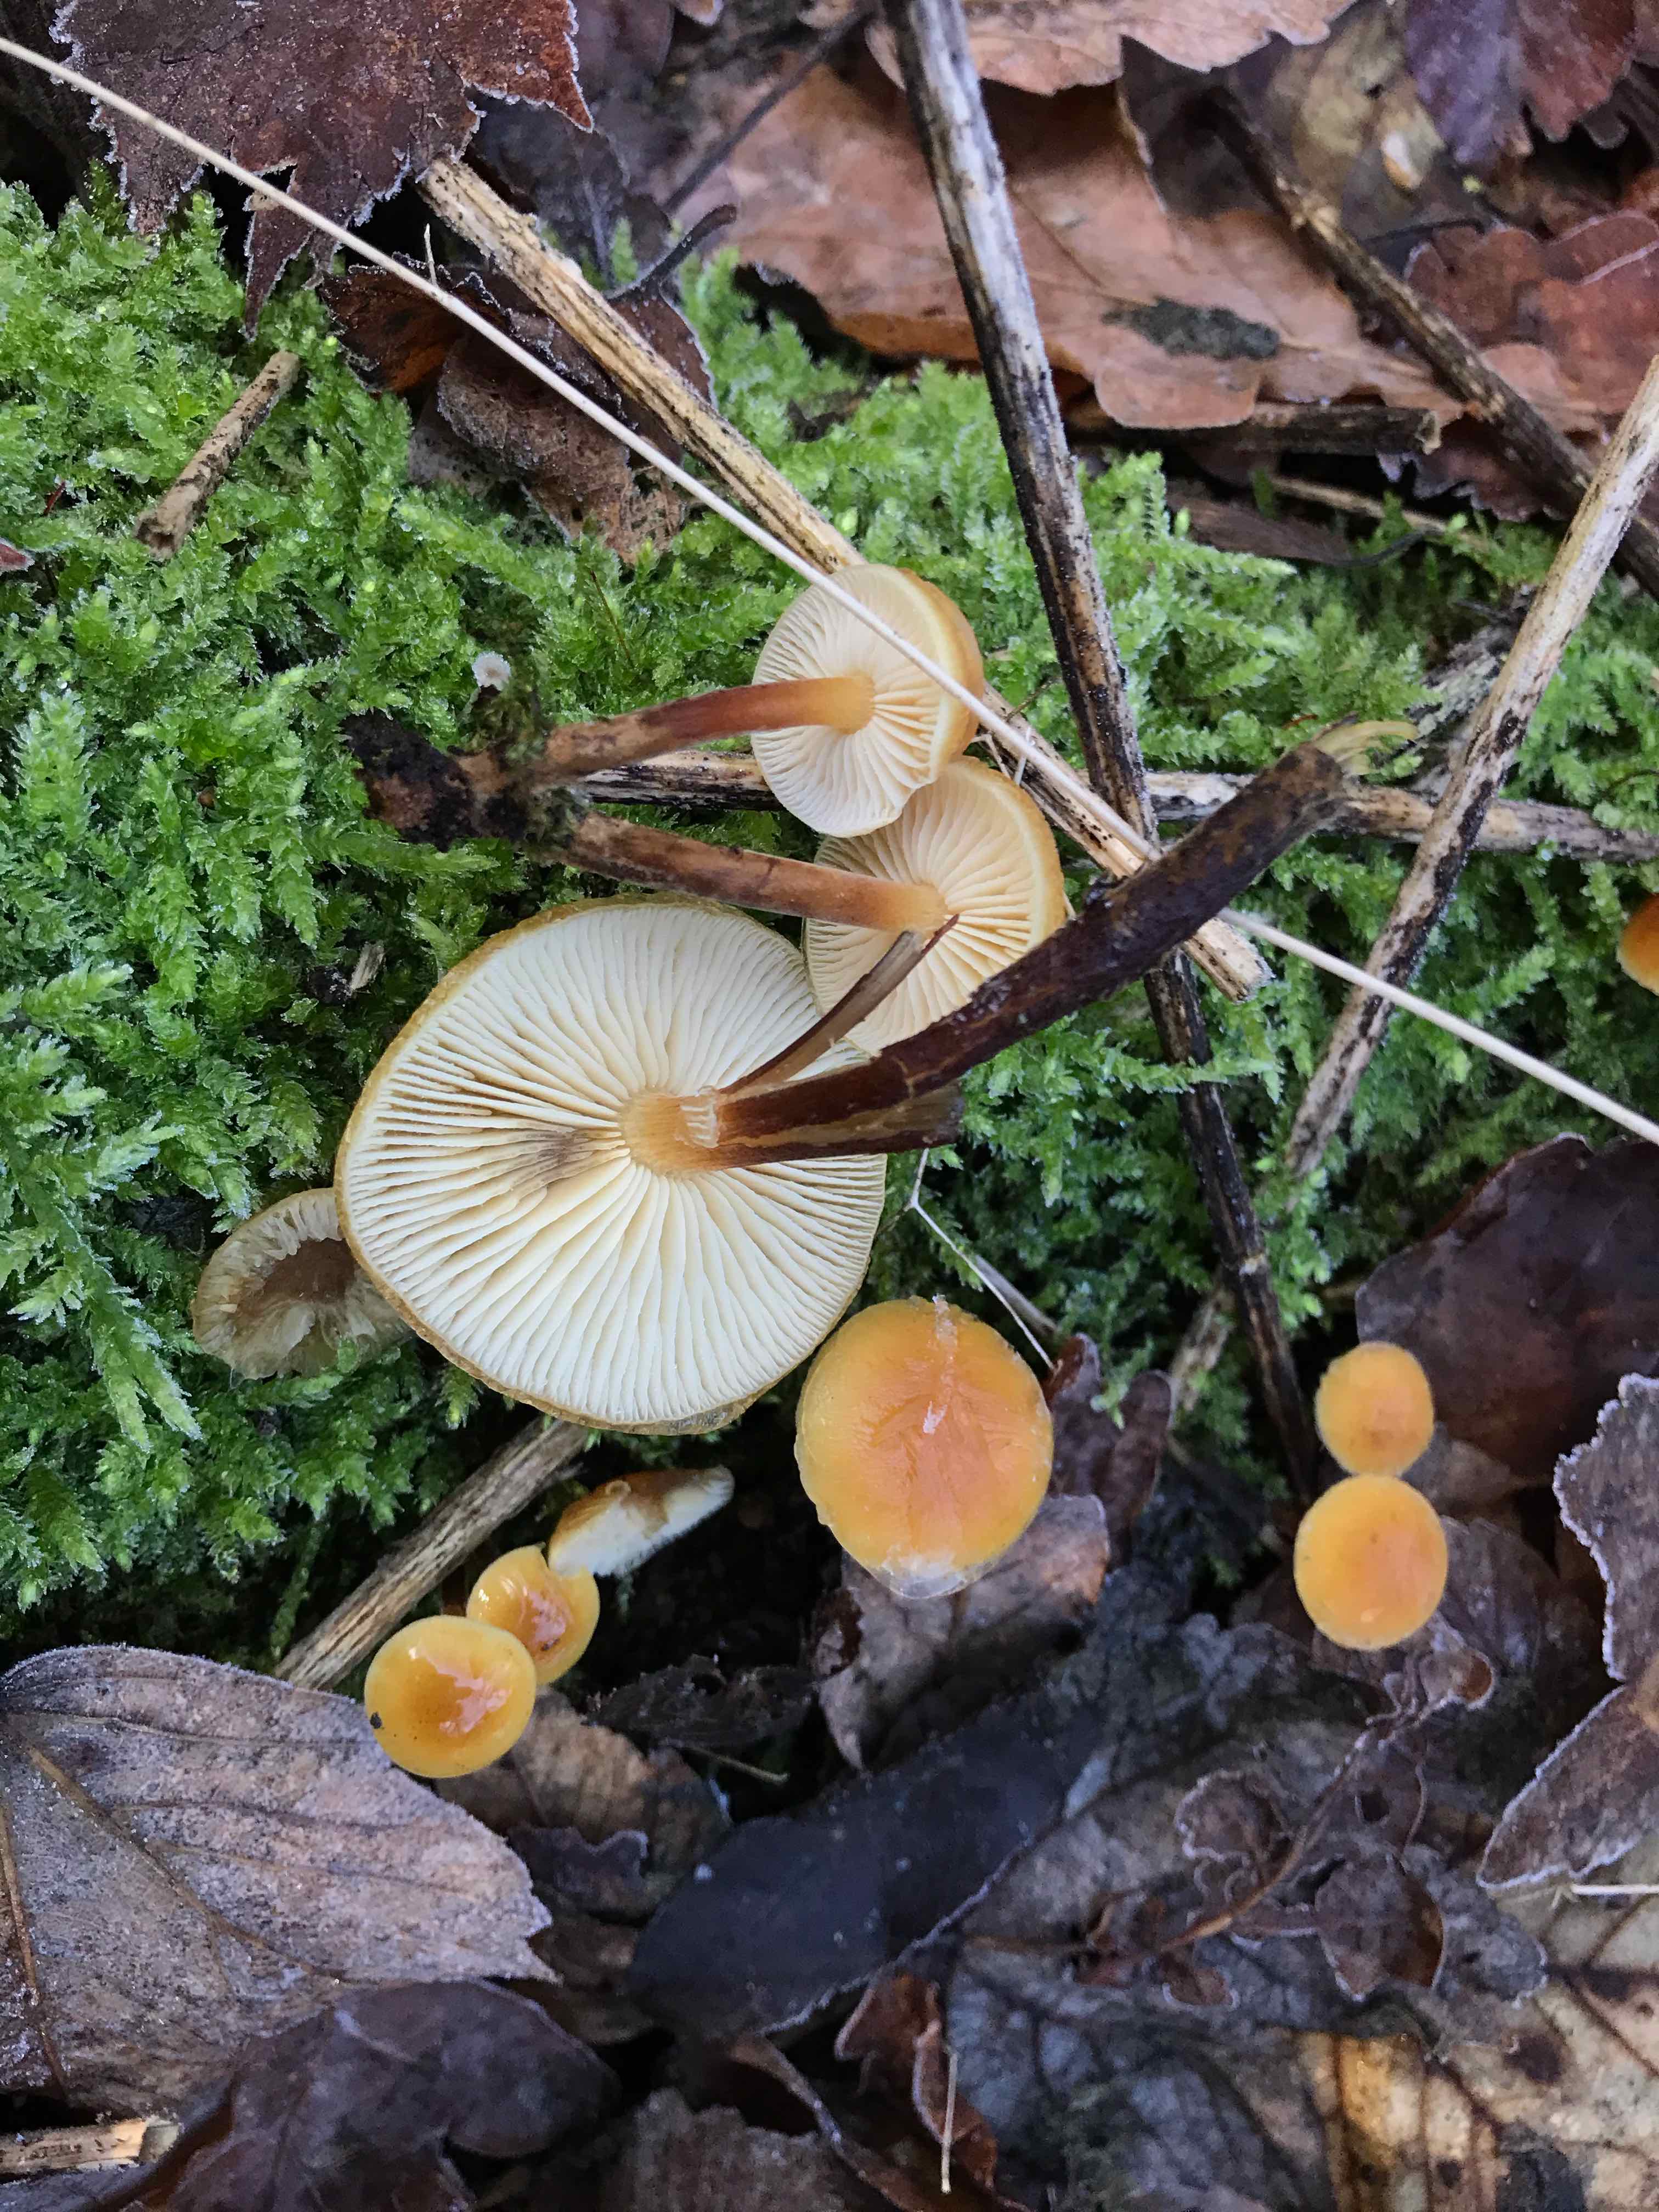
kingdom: Fungi
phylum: Basidiomycota
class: Agaricomycetes
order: Agaricales
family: Physalacriaceae
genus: Flammulina
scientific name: Flammulina velutipes
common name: gul fløjlsfod
